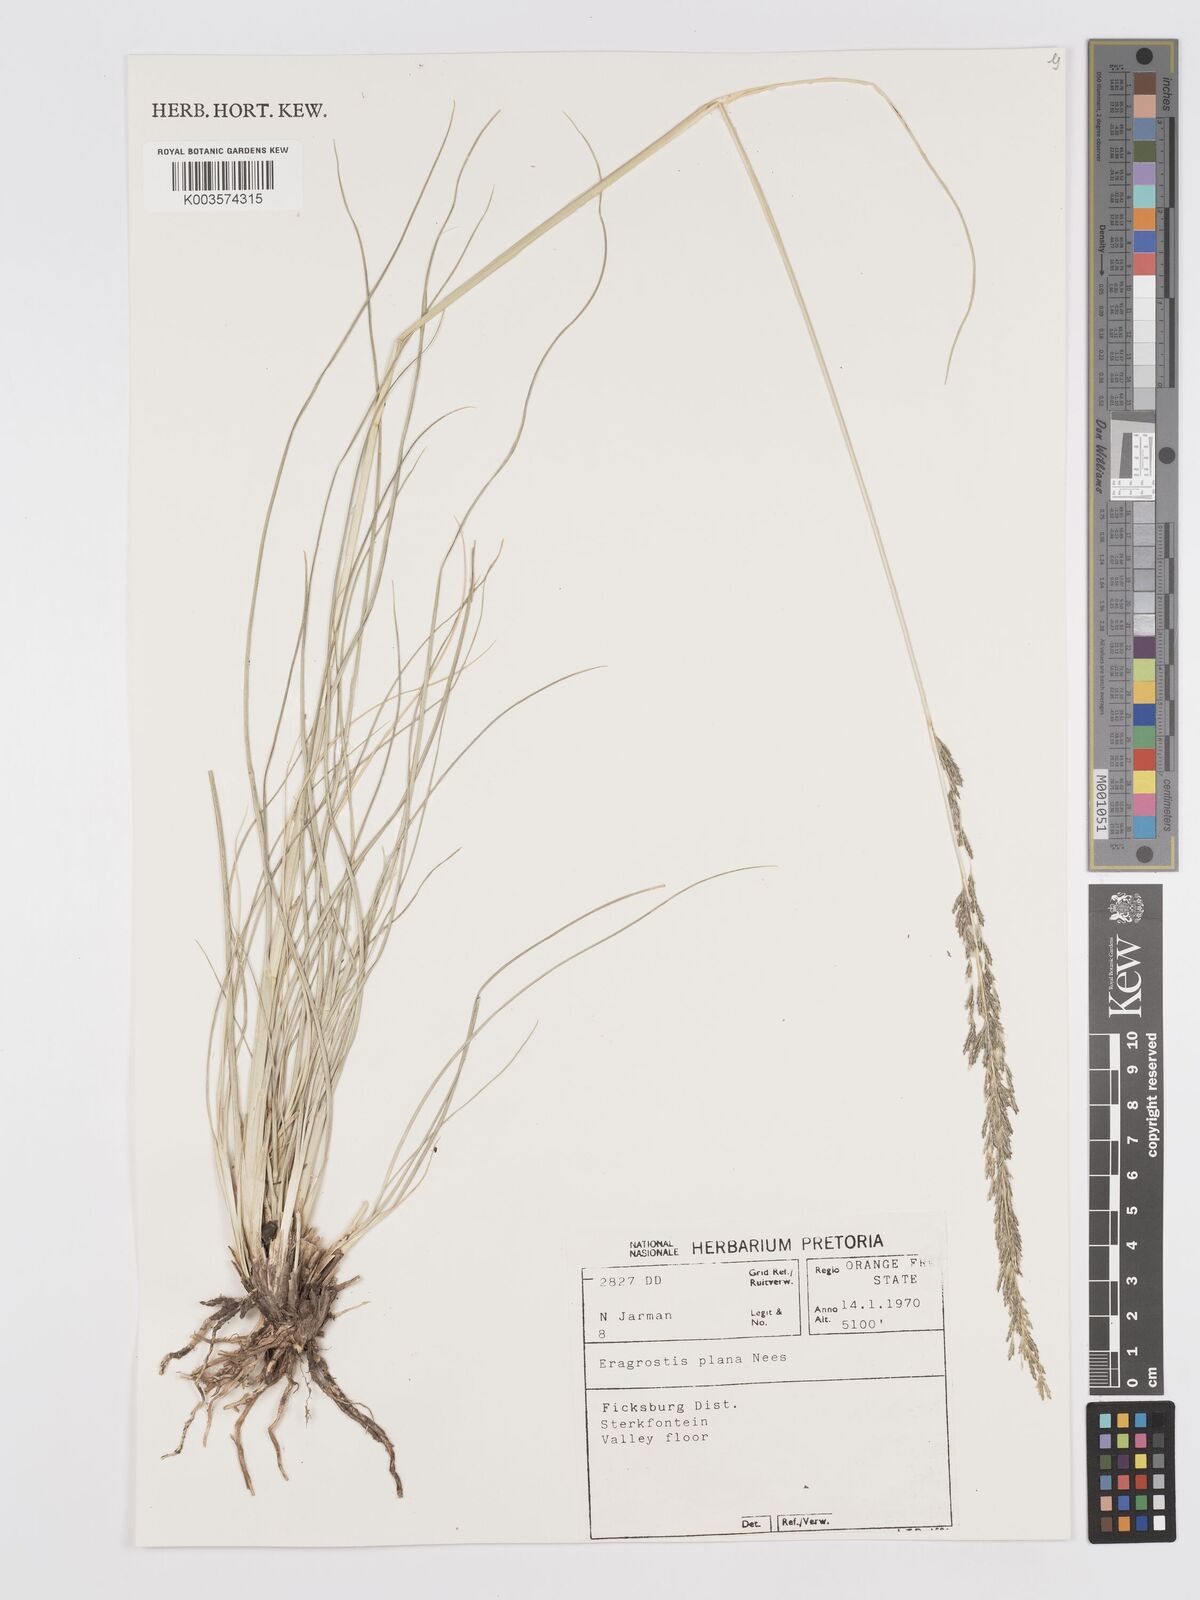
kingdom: Plantae
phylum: Tracheophyta
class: Liliopsida
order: Poales
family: Poaceae
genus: Eragrostis
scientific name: Eragrostis plana
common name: South african lovegrass
